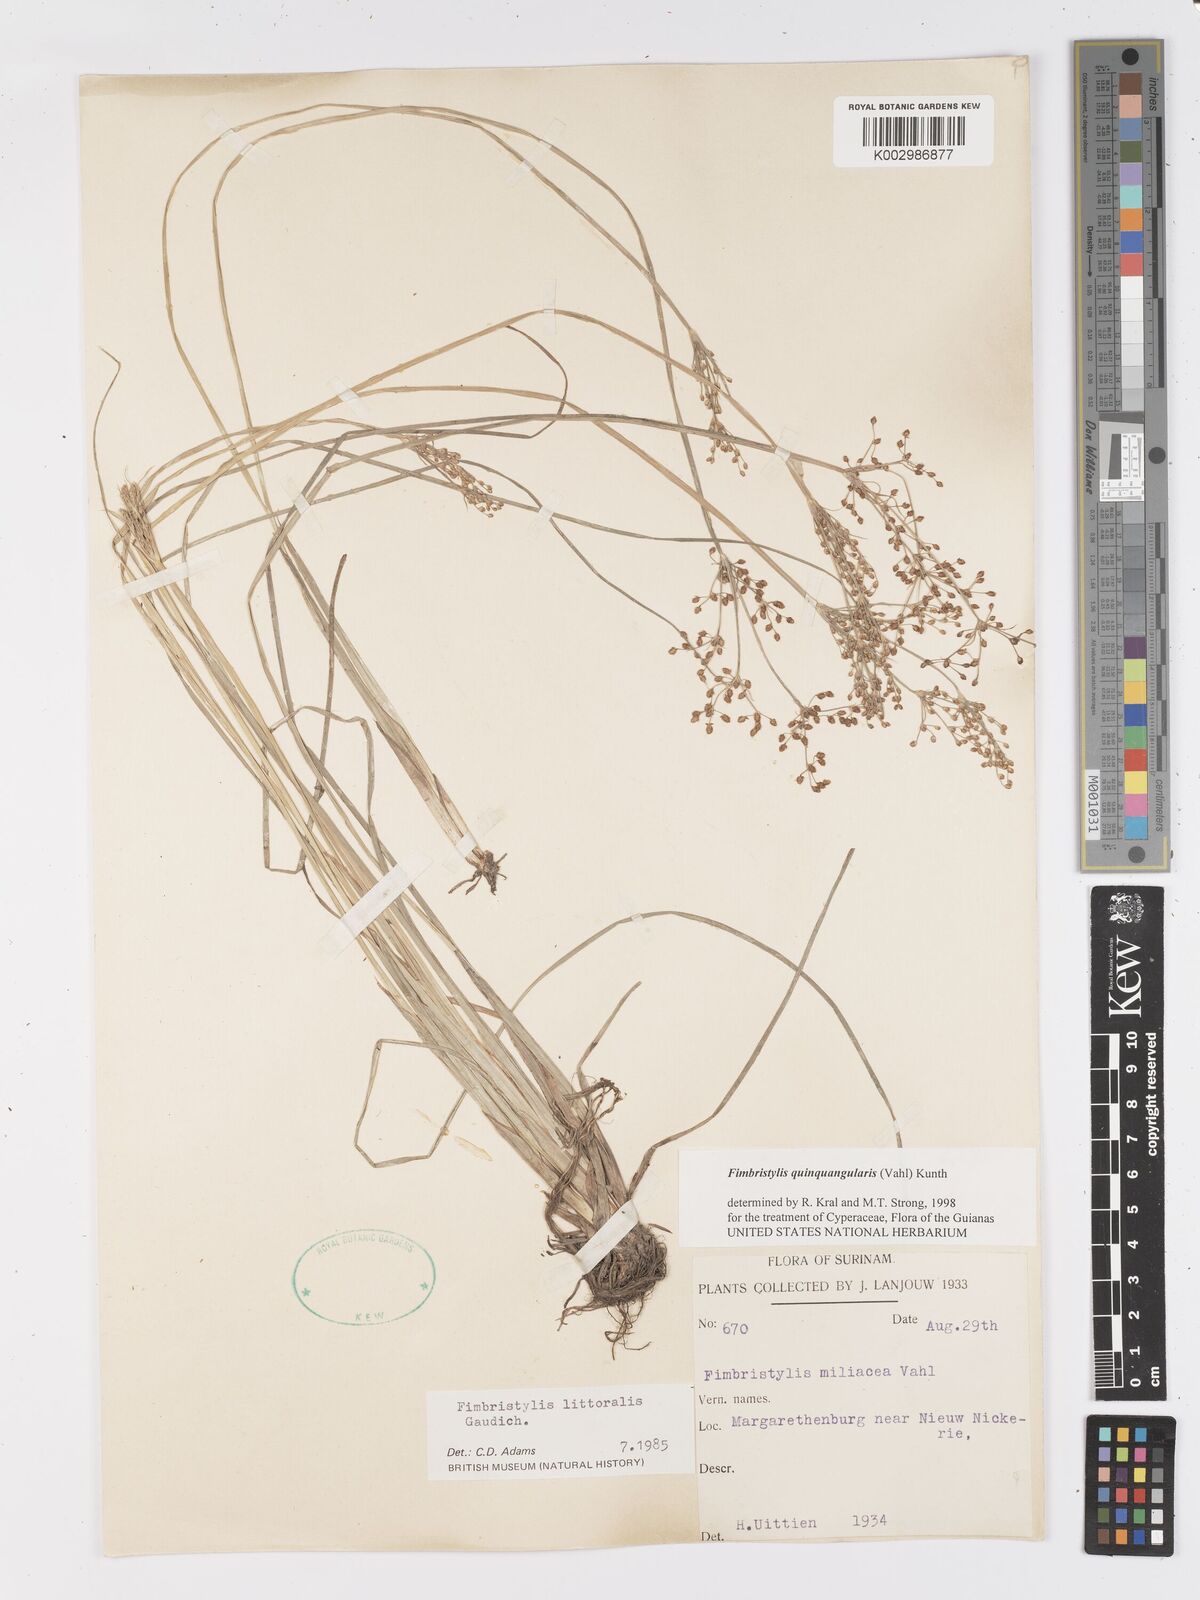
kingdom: Plantae
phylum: Tracheophyta
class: Liliopsida
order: Poales
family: Cyperaceae
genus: Fimbristylis
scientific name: Fimbristylis quinquangularis
